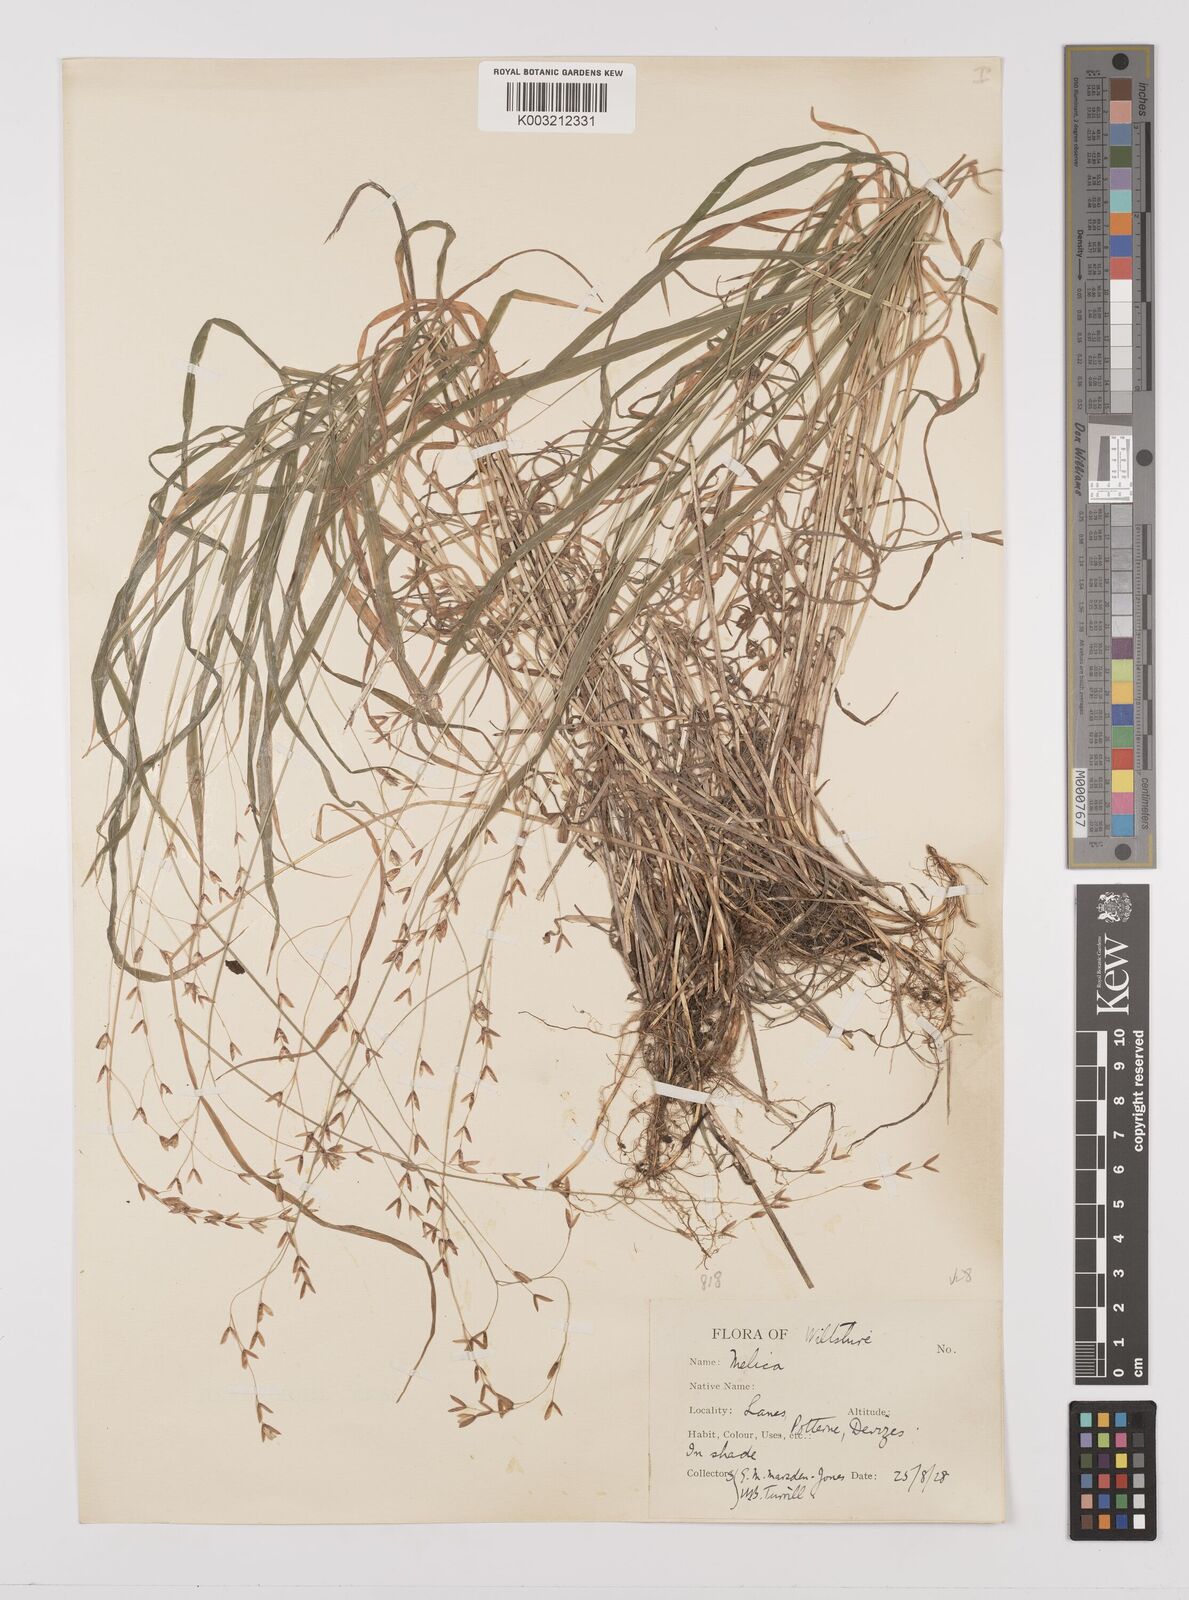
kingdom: Plantae
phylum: Tracheophyta
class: Liliopsida
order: Poales
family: Poaceae
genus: Melica
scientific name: Melica uniflora
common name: Wood melick
